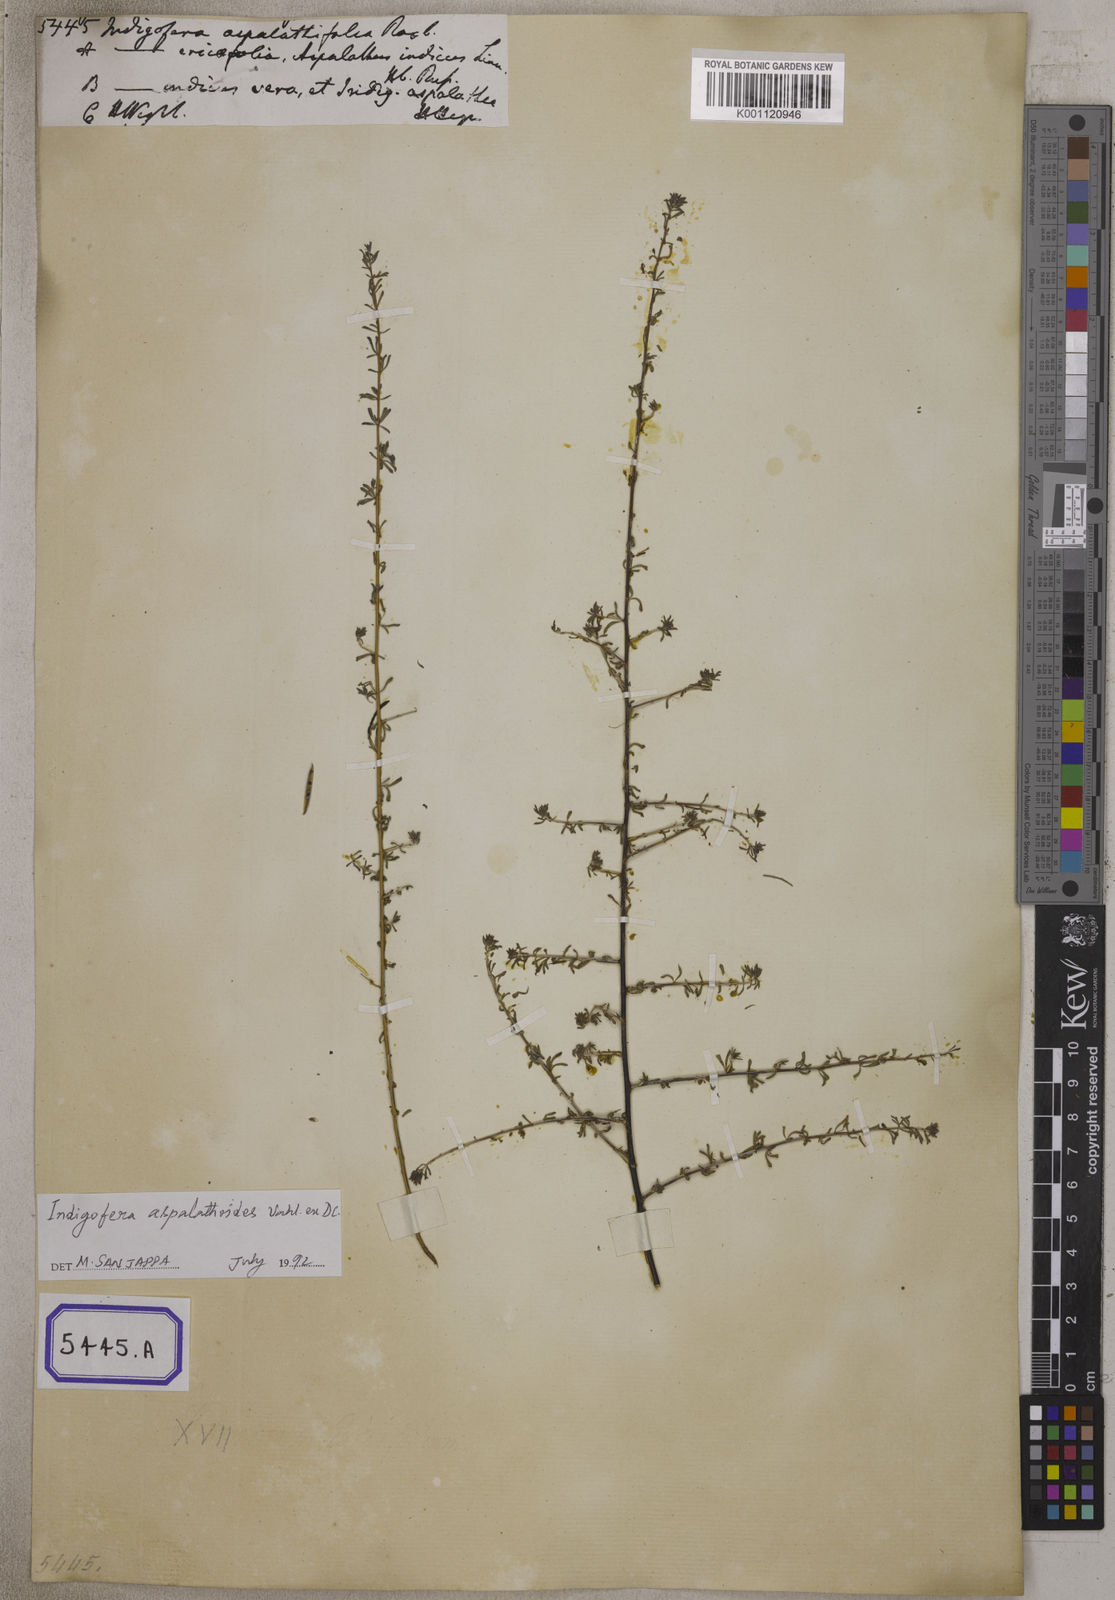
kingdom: Plantae
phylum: Tracheophyta
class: Magnoliopsida
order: Fabales
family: Fabaceae
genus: Indigofera
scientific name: Indigofera aspalathoides
